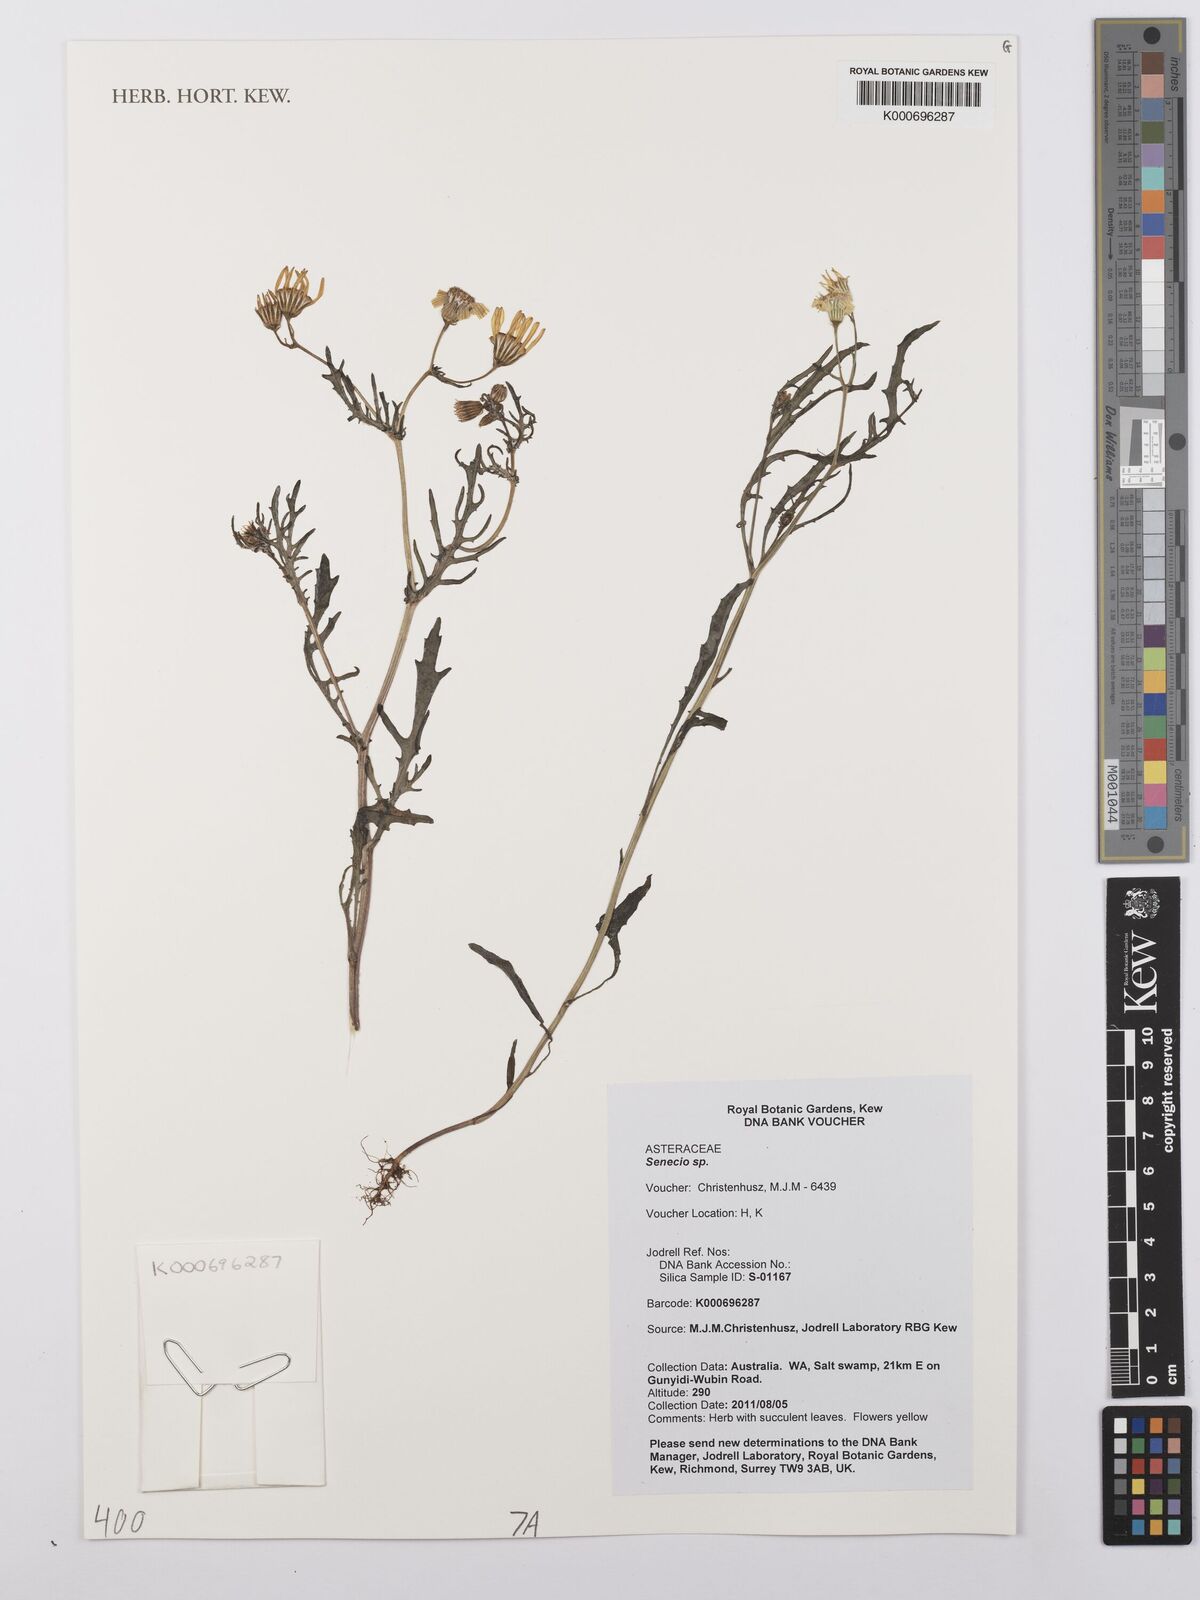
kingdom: Plantae
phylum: Tracheophyta
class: Magnoliopsida
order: Asterales
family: Asteraceae
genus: Senecio
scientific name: Senecio
